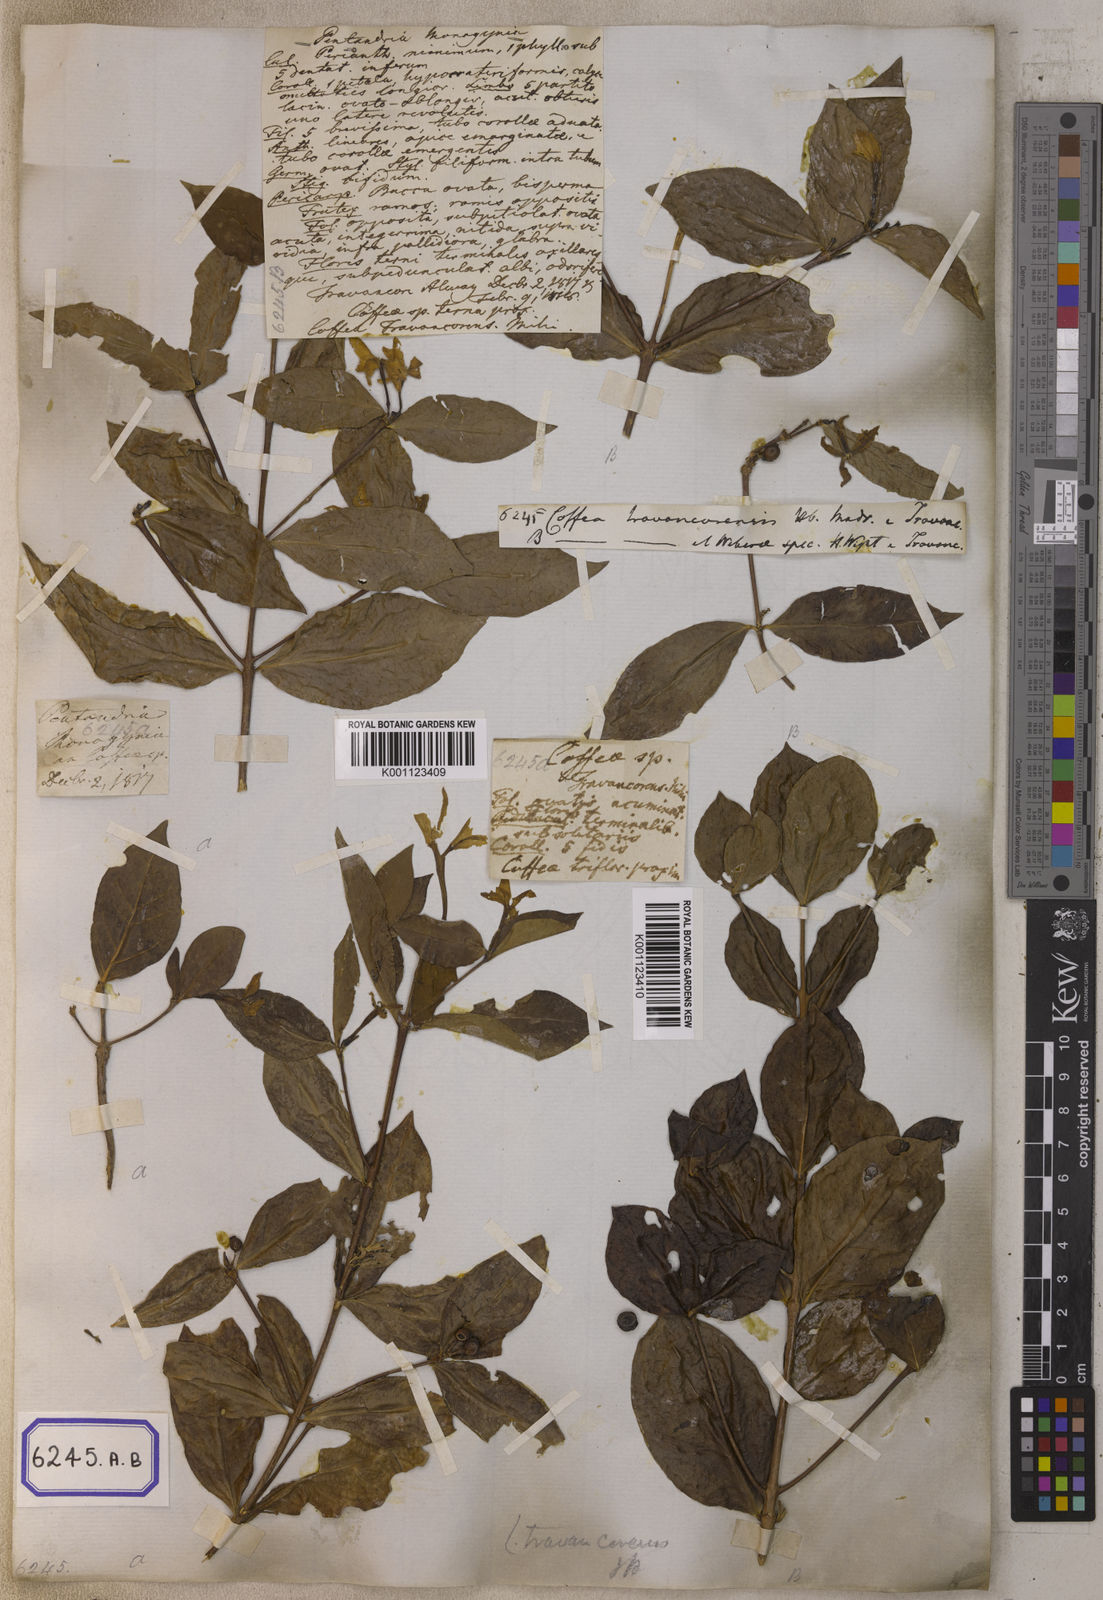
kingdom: Plantae
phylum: Tracheophyta
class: Magnoliopsida
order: Gentianales
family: Rubiaceae
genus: Coffea
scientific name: Coffea travancorensis
